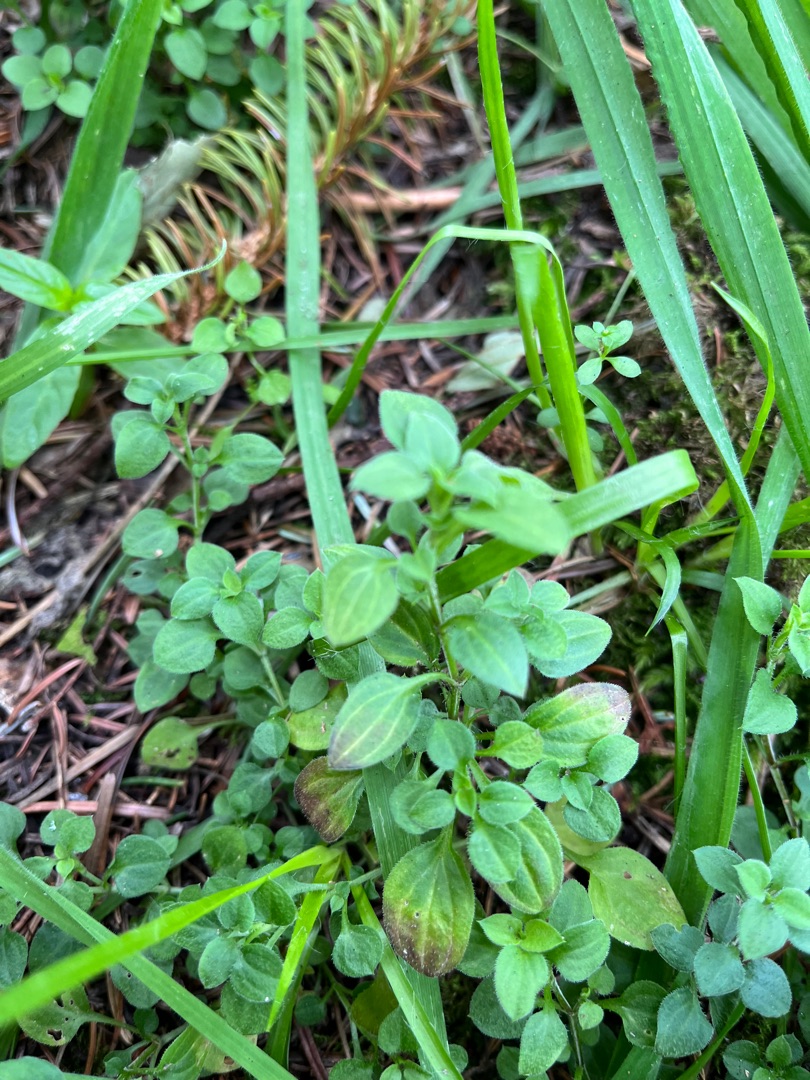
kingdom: Plantae
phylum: Tracheophyta
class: Magnoliopsida
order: Caryophyllales
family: Caryophyllaceae
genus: Moehringia
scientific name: Moehringia trinervia
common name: Skovarve
